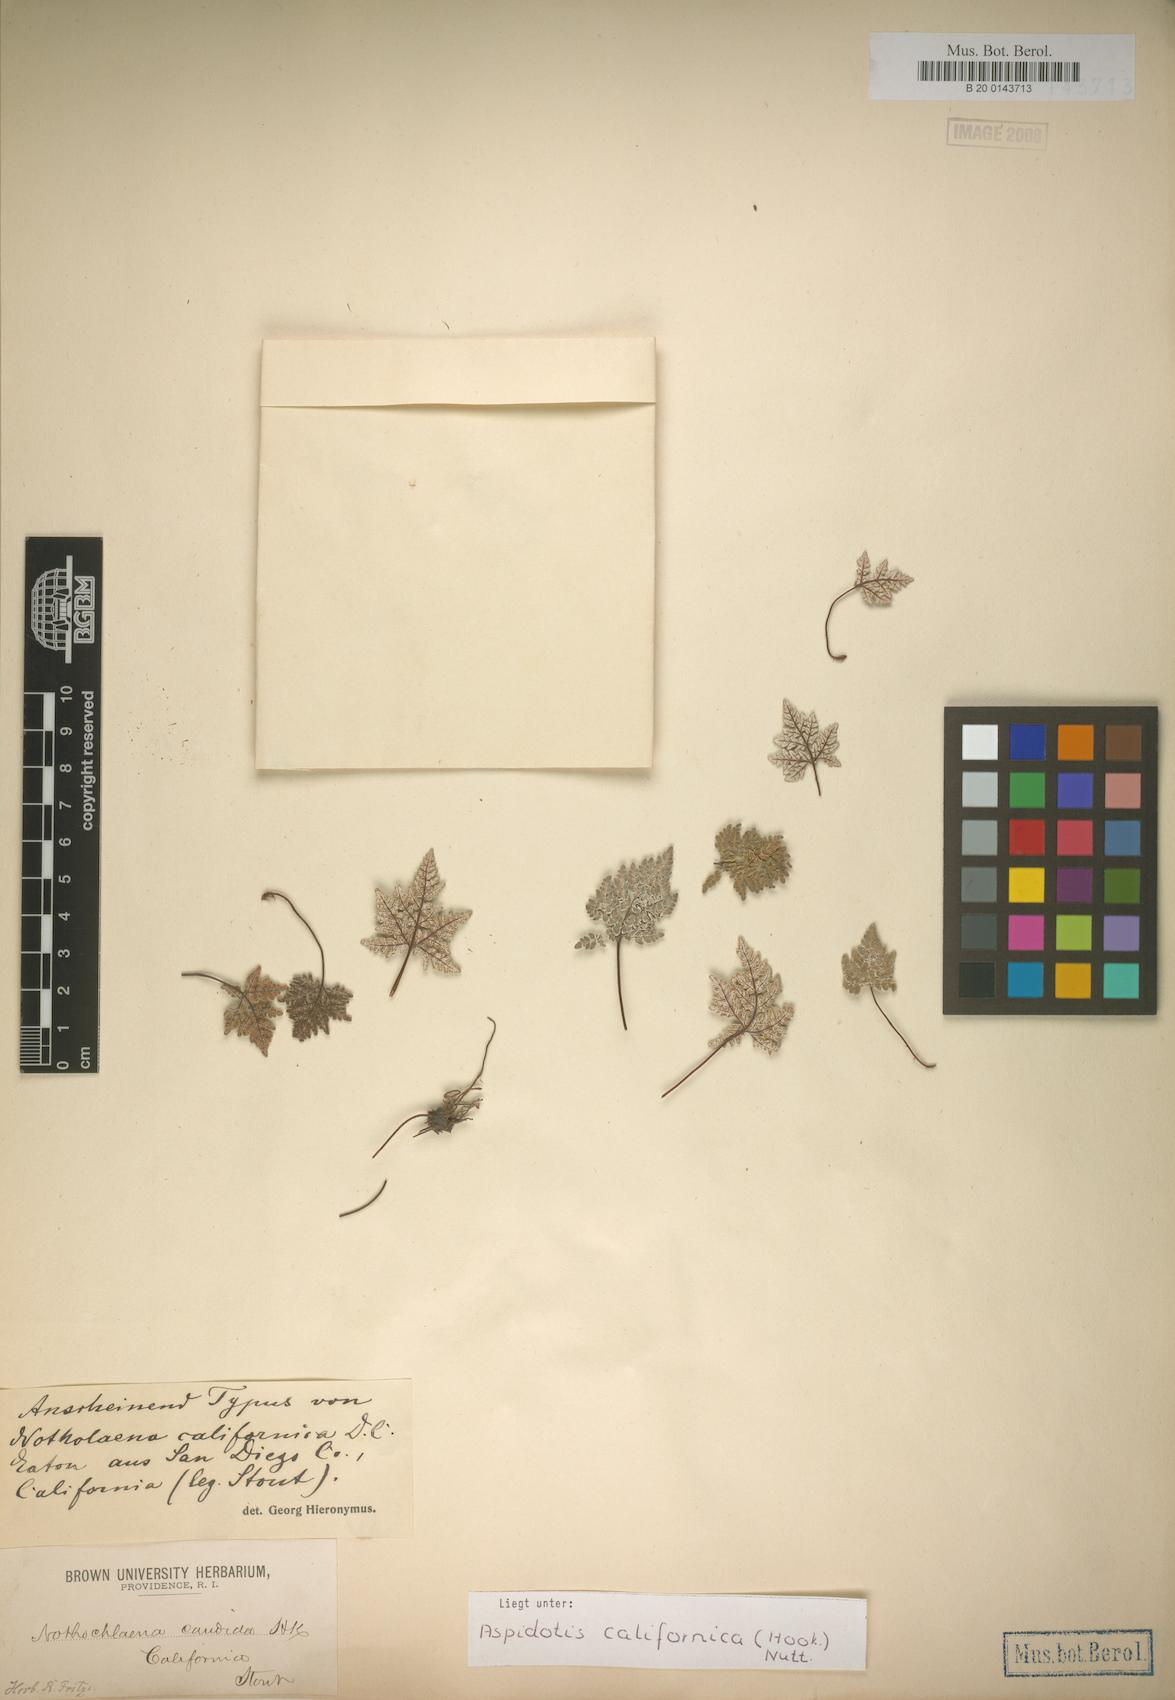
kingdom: Plantae
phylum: Tracheophyta
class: Polypodiopsida
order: Polypodiales
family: Pteridaceae
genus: Notholaena
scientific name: Notholaena californica
